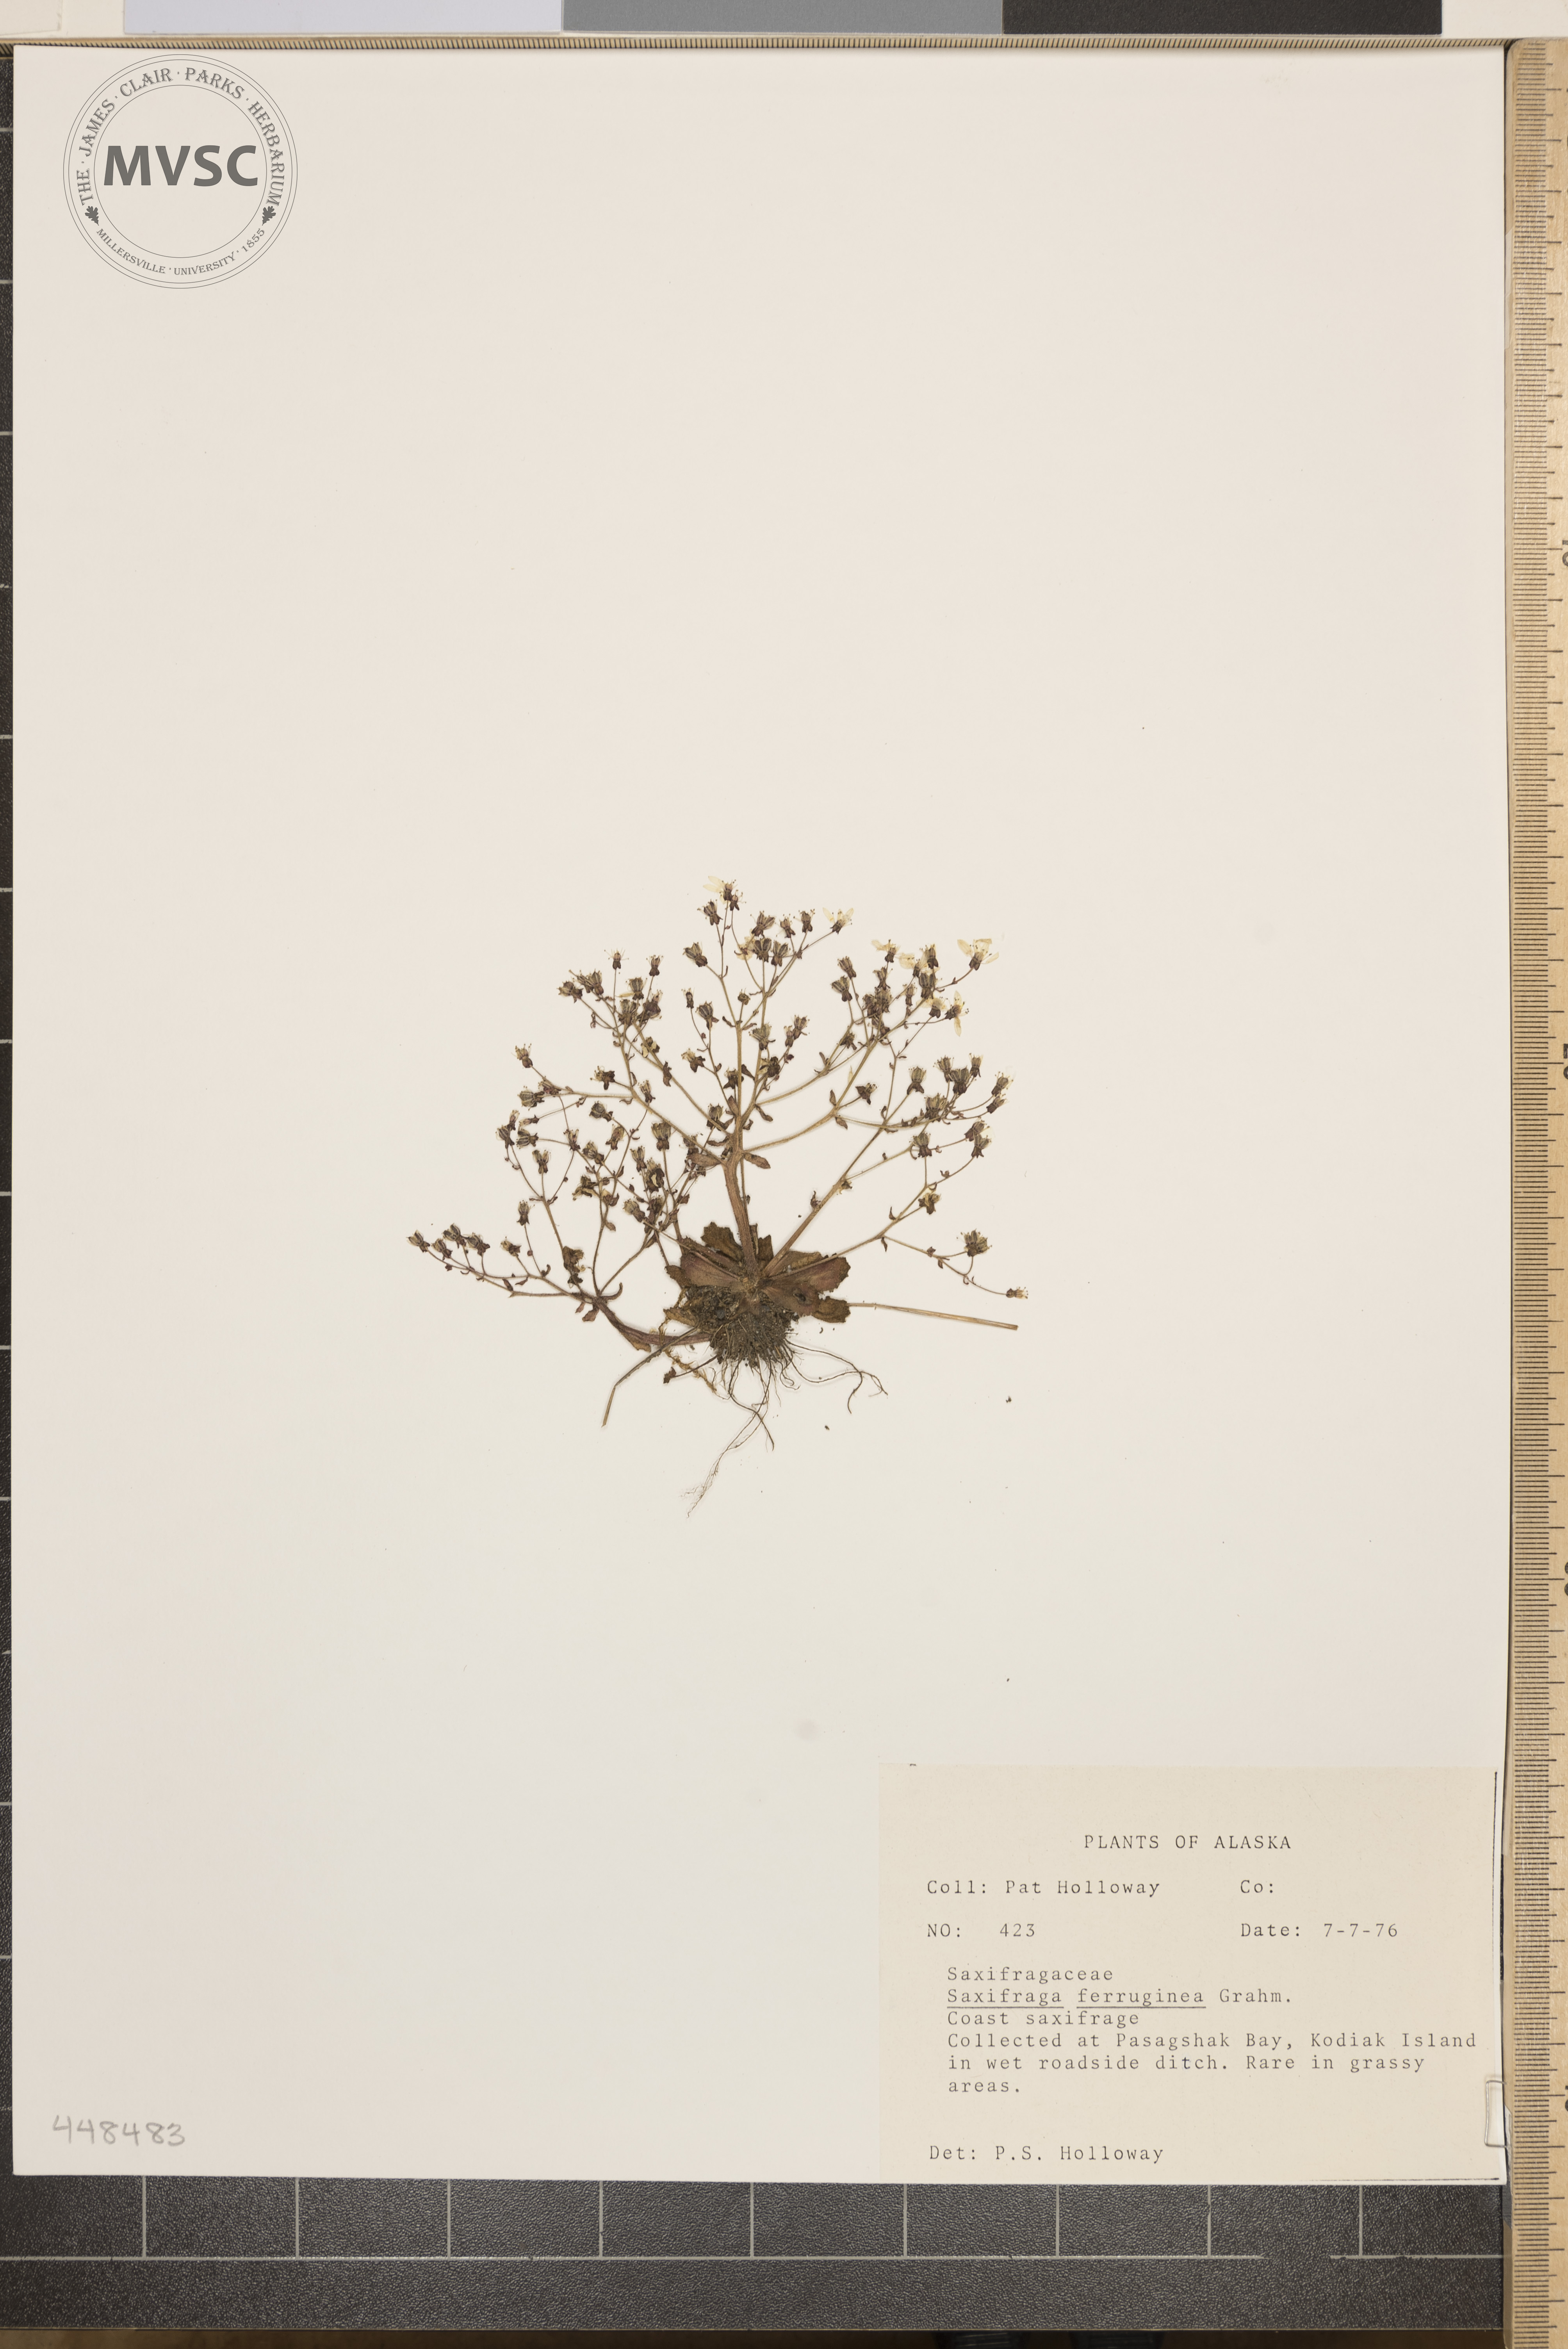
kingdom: Plantae
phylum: Tracheophyta
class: Magnoliopsida
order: Saxifragales
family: Saxifragaceae
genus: Micranthes
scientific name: Micranthes ferruginea
